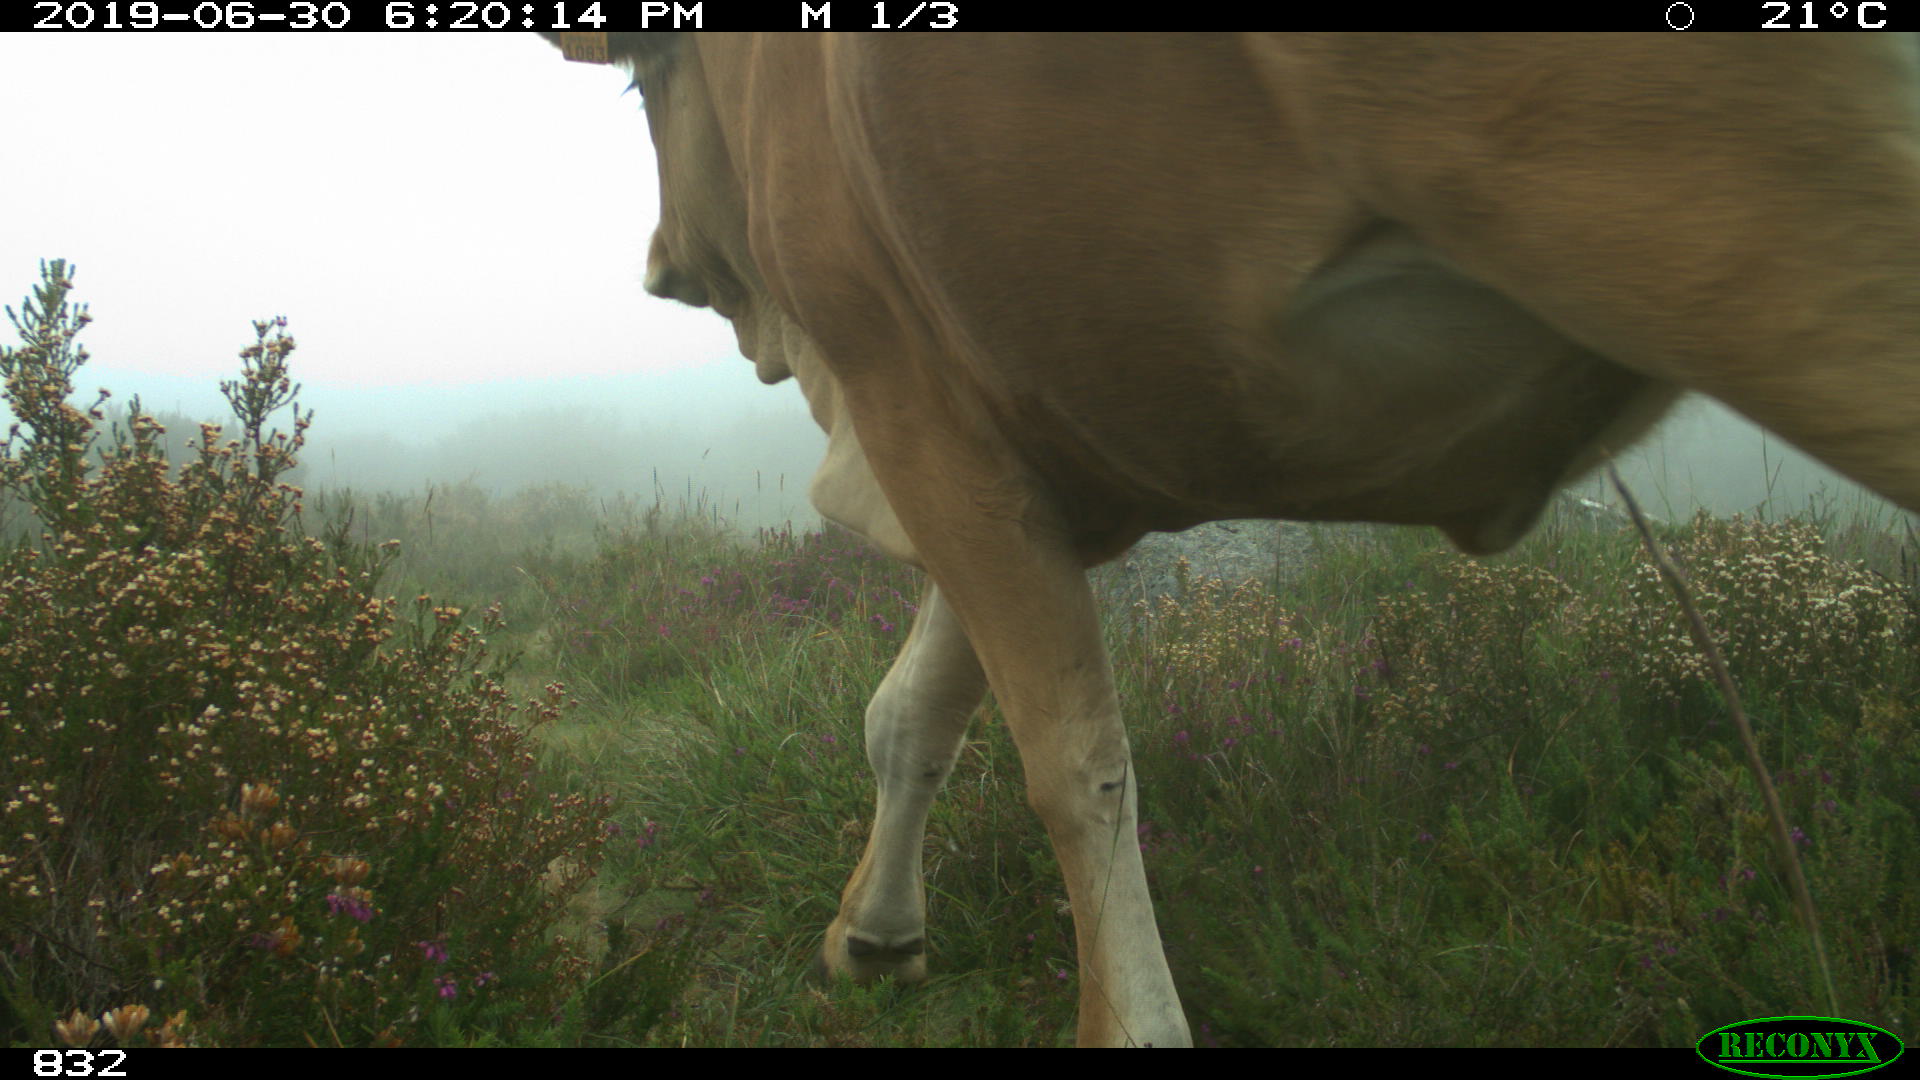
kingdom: Animalia
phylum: Chordata
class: Mammalia
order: Artiodactyla
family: Bovidae
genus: Bos
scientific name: Bos taurus
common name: Domesticated cattle
